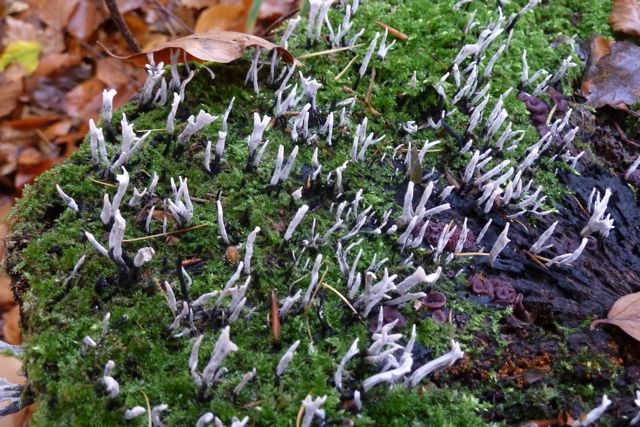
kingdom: Fungi
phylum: Ascomycota
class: Sordariomycetes
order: Xylariales
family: Xylariaceae
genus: Xylaria
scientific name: Xylaria hypoxylon
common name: grenet stødsvamp
